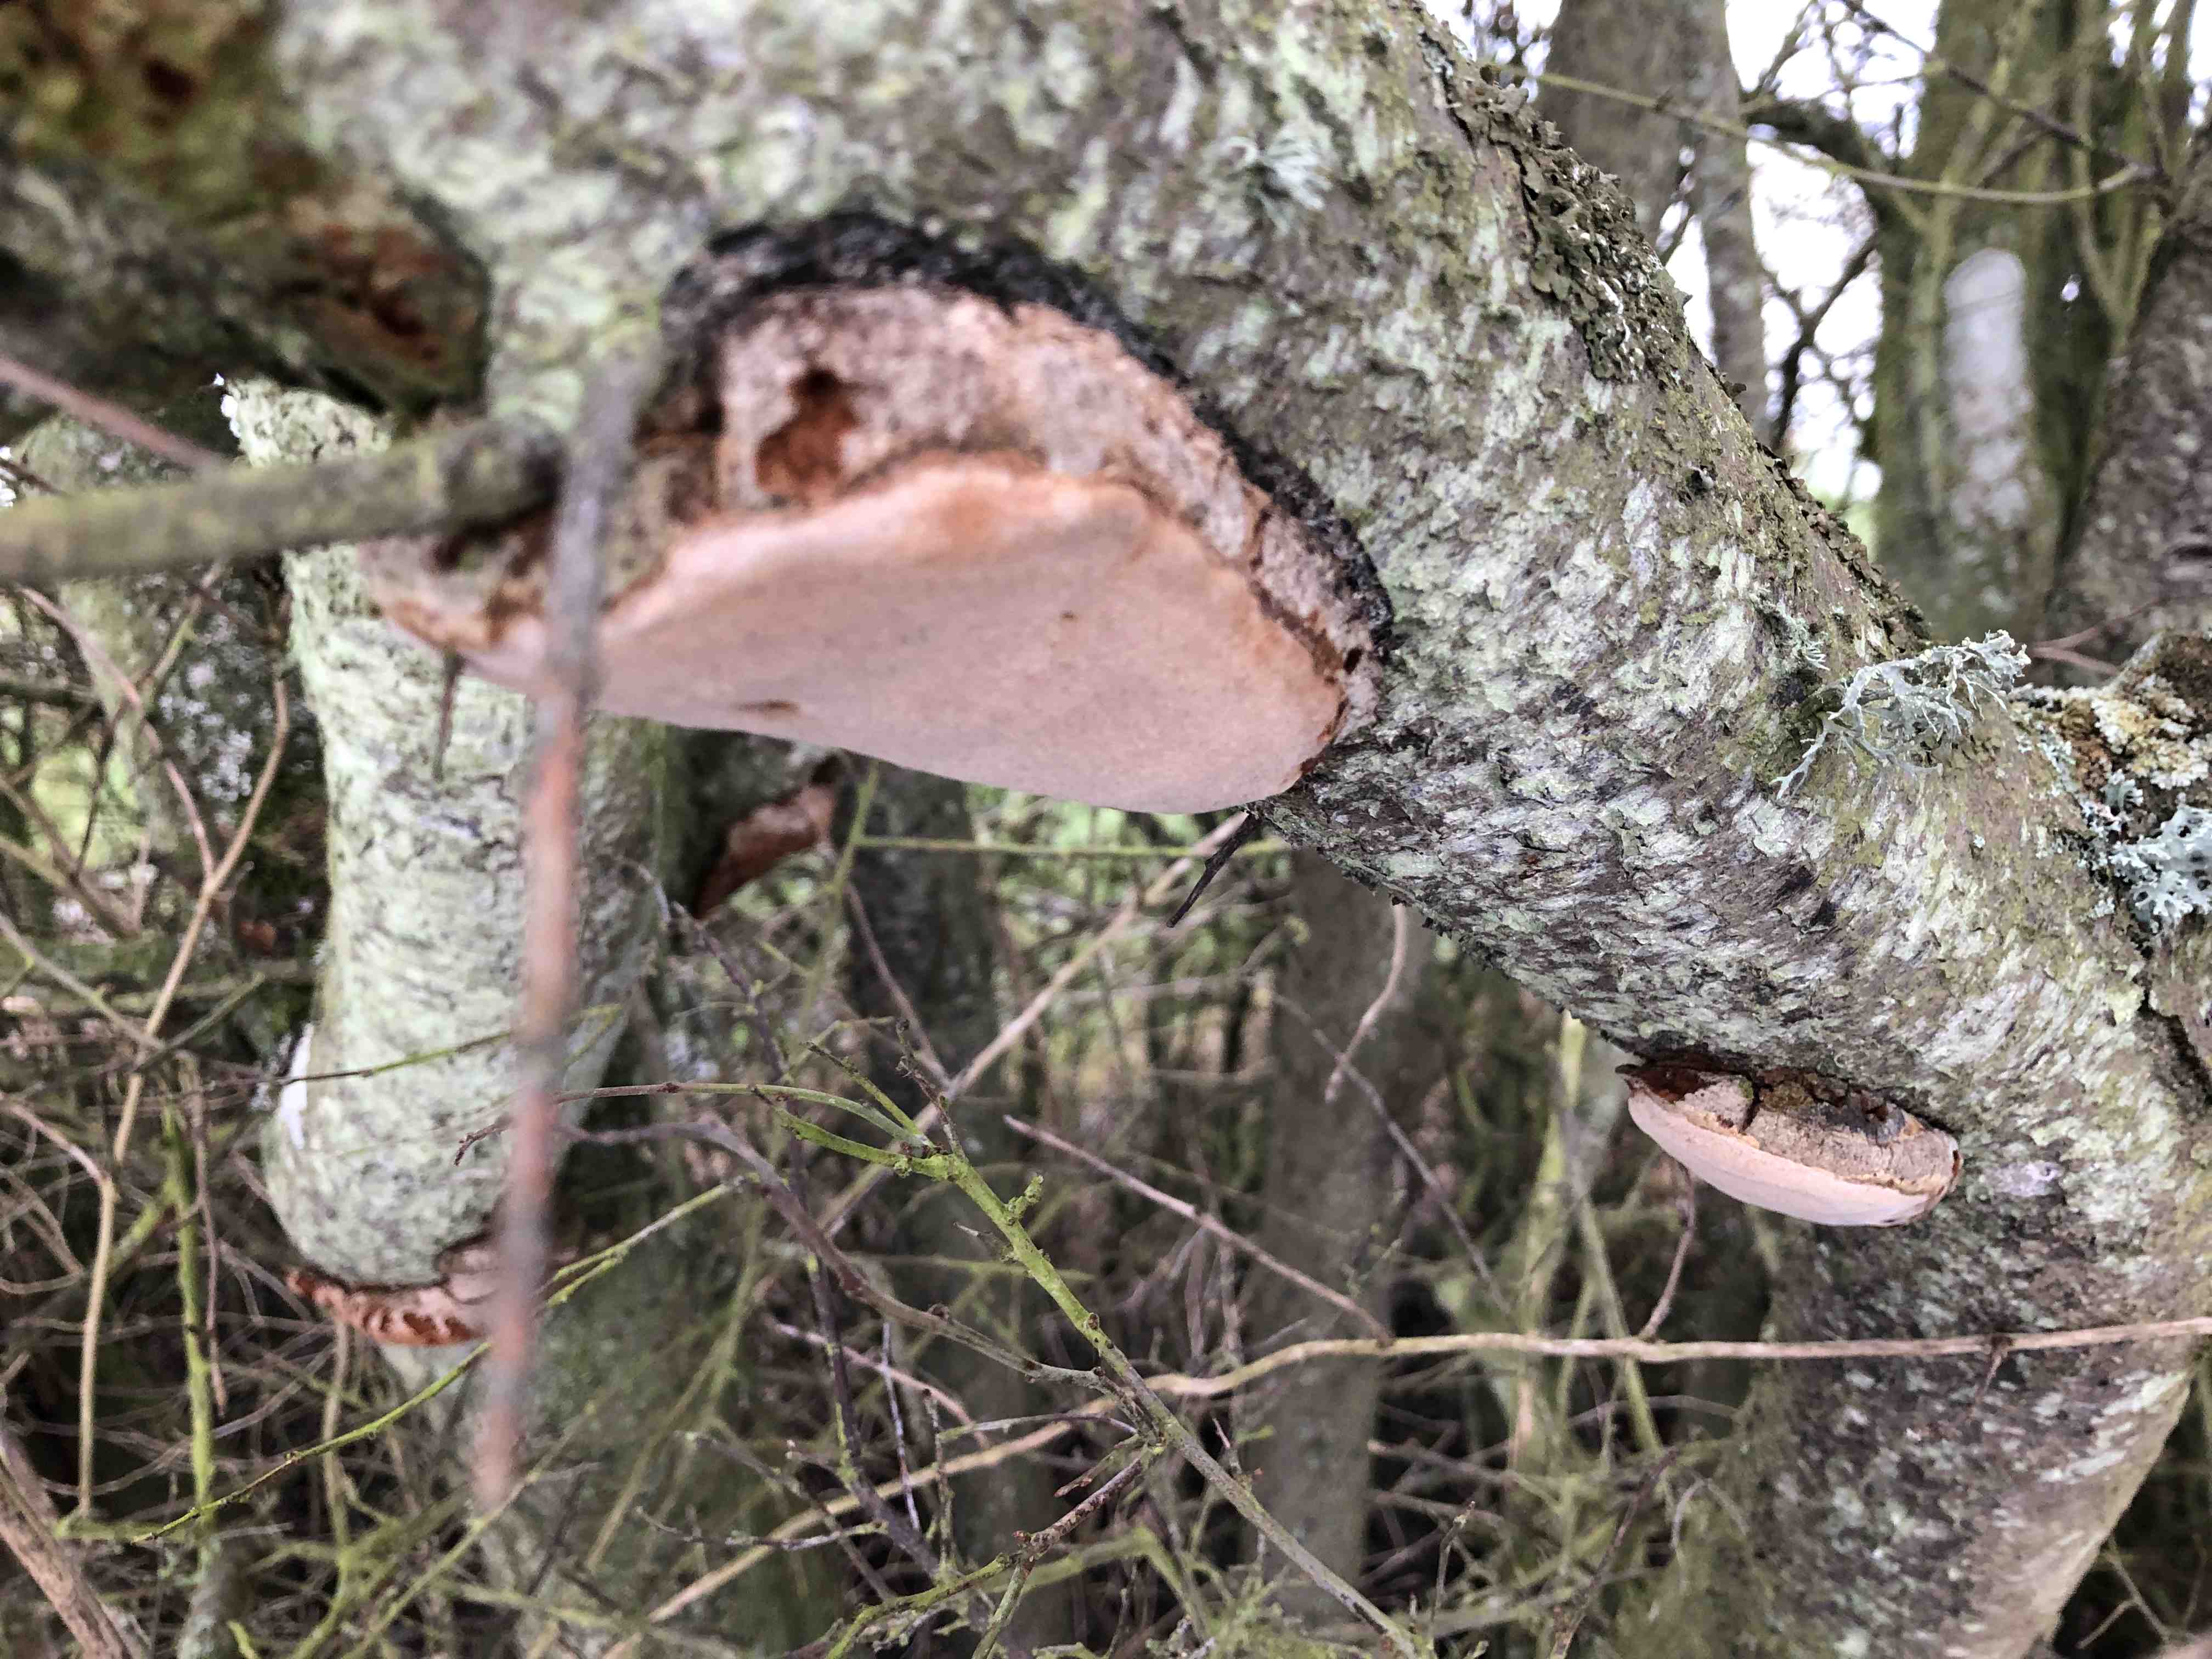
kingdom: Fungi
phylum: Basidiomycota
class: Agaricomycetes
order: Hymenochaetales
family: Hymenochaetaceae
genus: Phellinus
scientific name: Phellinus pomaceus
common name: blomme-ildporesvamp
